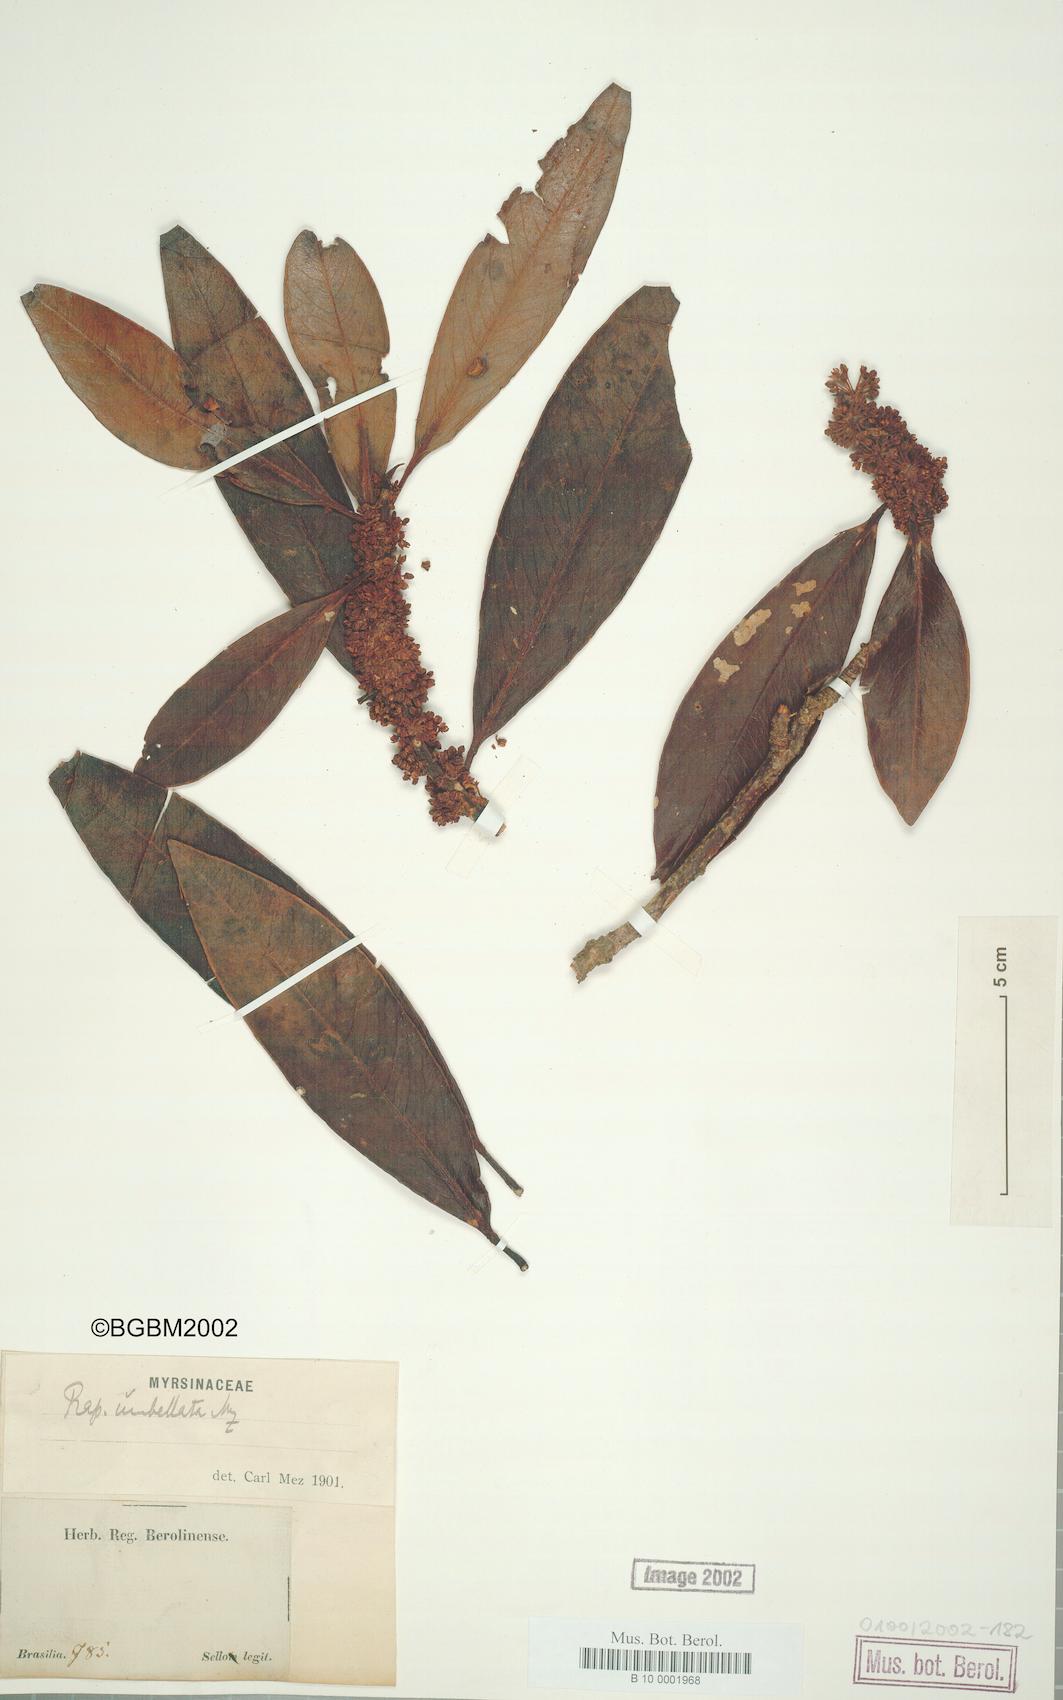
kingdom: Plantae
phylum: Tracheophyta
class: Magnoliopsida
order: Ericales
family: Primulaceae
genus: Myrsine
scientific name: Myrsine umbellata
